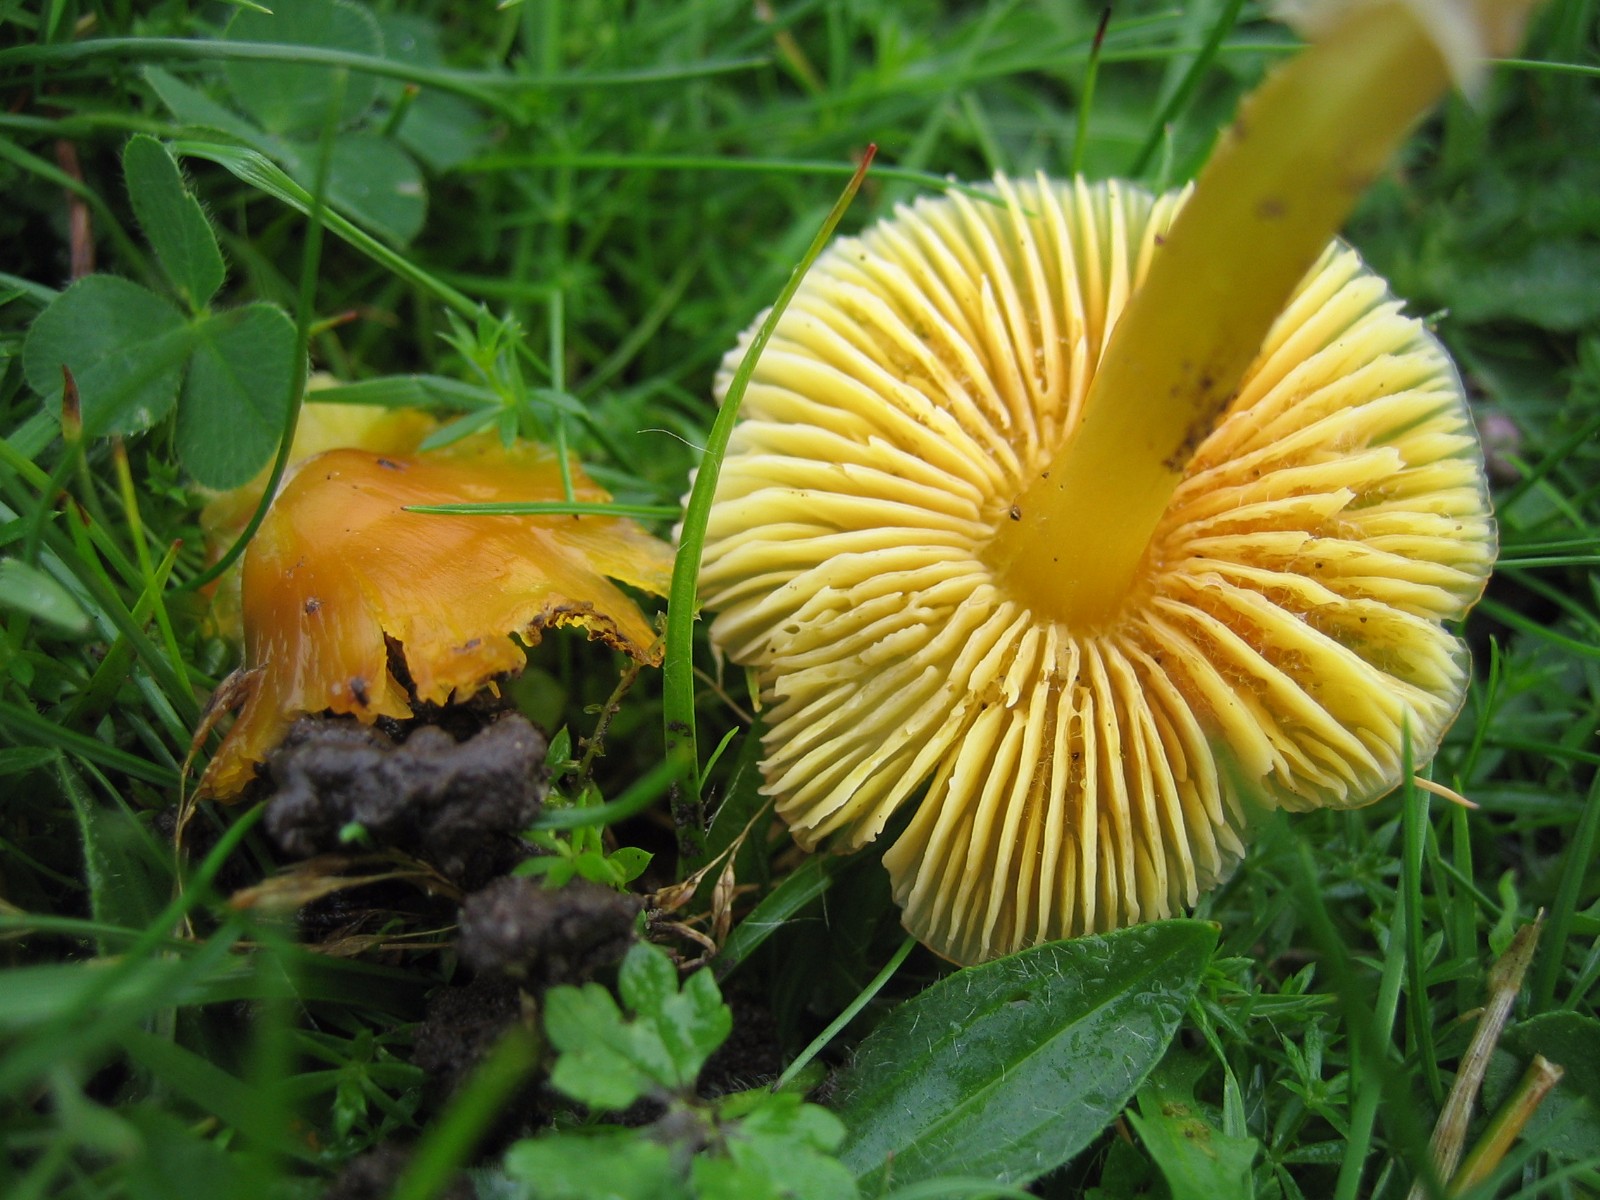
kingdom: Fungi
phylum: Basidiomycota
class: Agaricomycetes
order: Agaricales
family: Hygrophoraceae
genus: Hygrocybe
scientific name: Hygrocybe chlorophana
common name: gul vokshat
